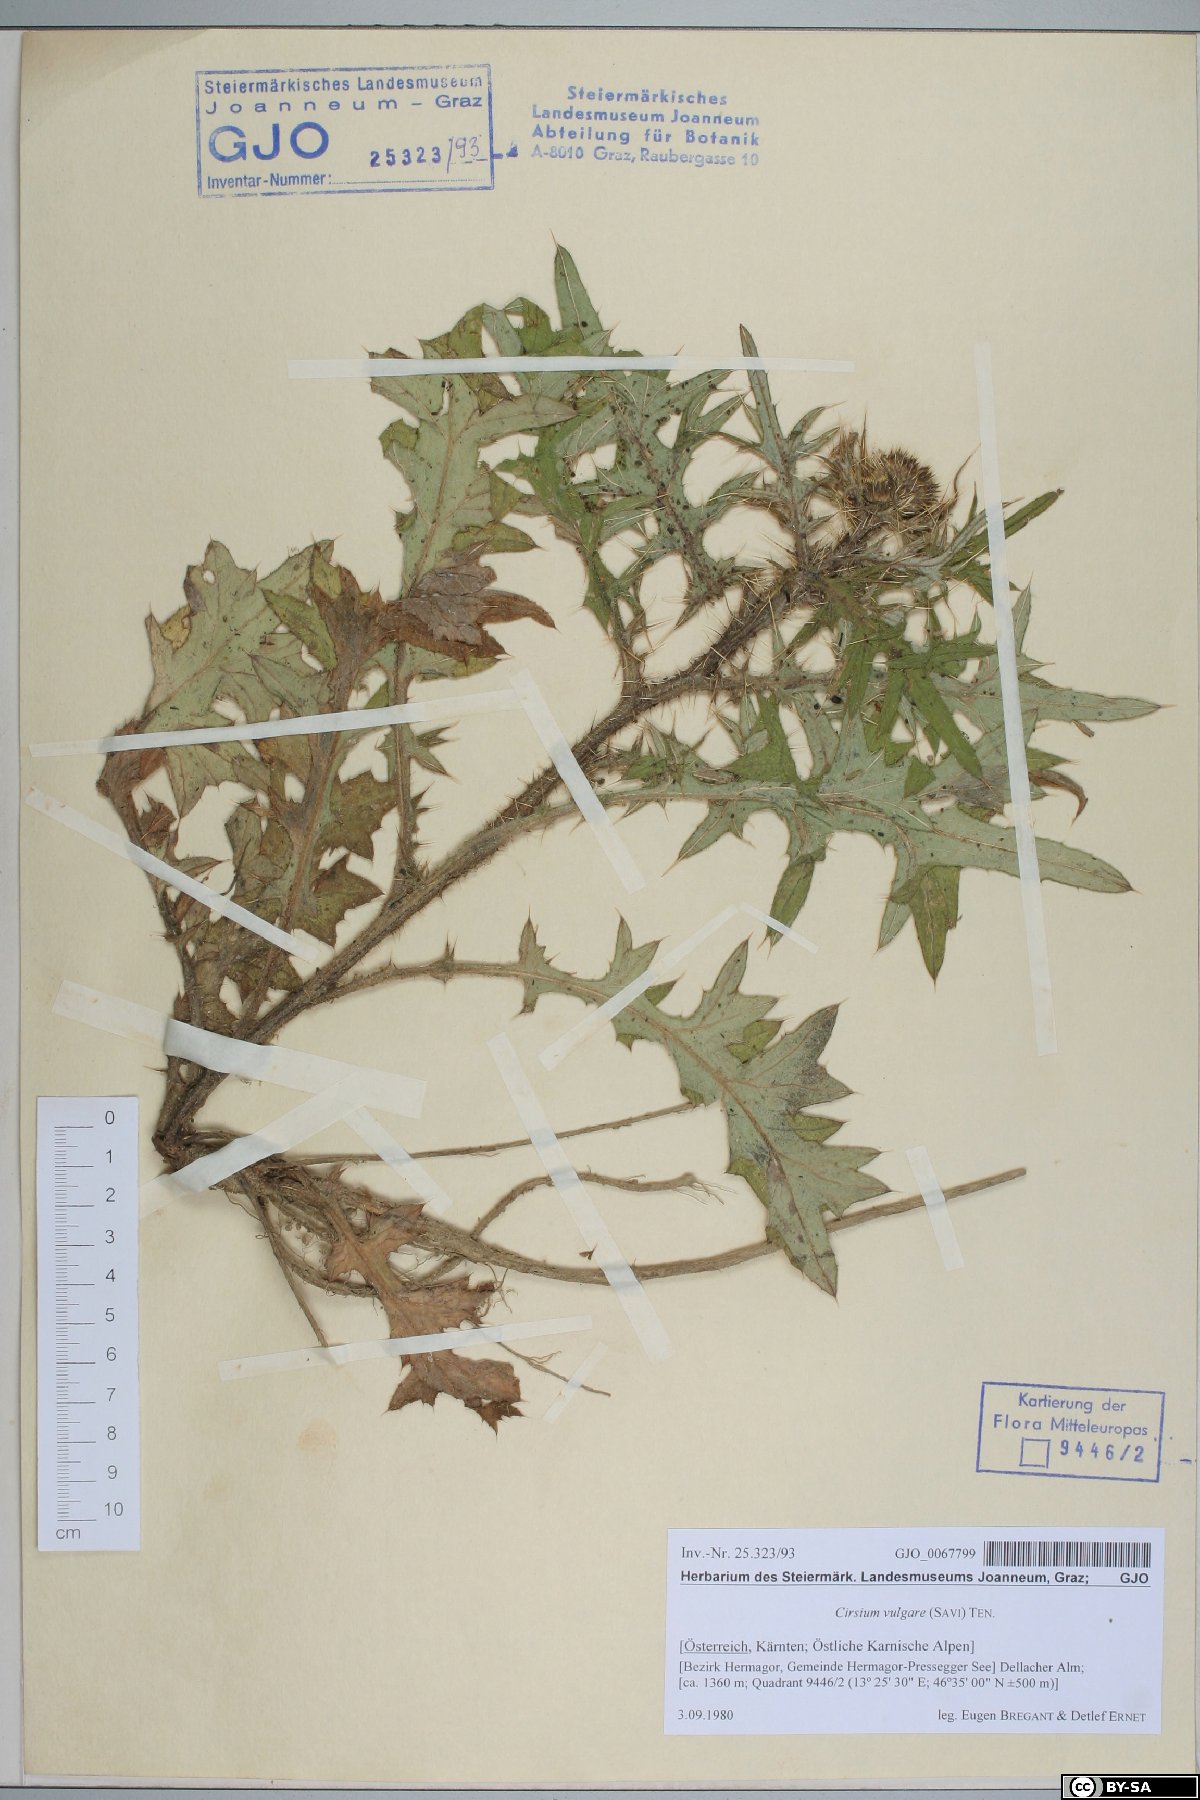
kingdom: Plantae
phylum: Tracheophyta
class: Magnoliopsida
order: Asterales
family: Asteraceae
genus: Cirsium
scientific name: Cirsium vulgare
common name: Bull thistle
